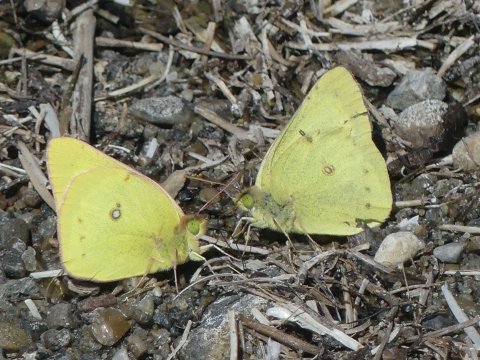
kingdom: Animalia
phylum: Arthropoda
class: Insecta
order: Lepidoptera
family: Pieridae
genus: Colias
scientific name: Colias philodice
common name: Clouded Sulphur
